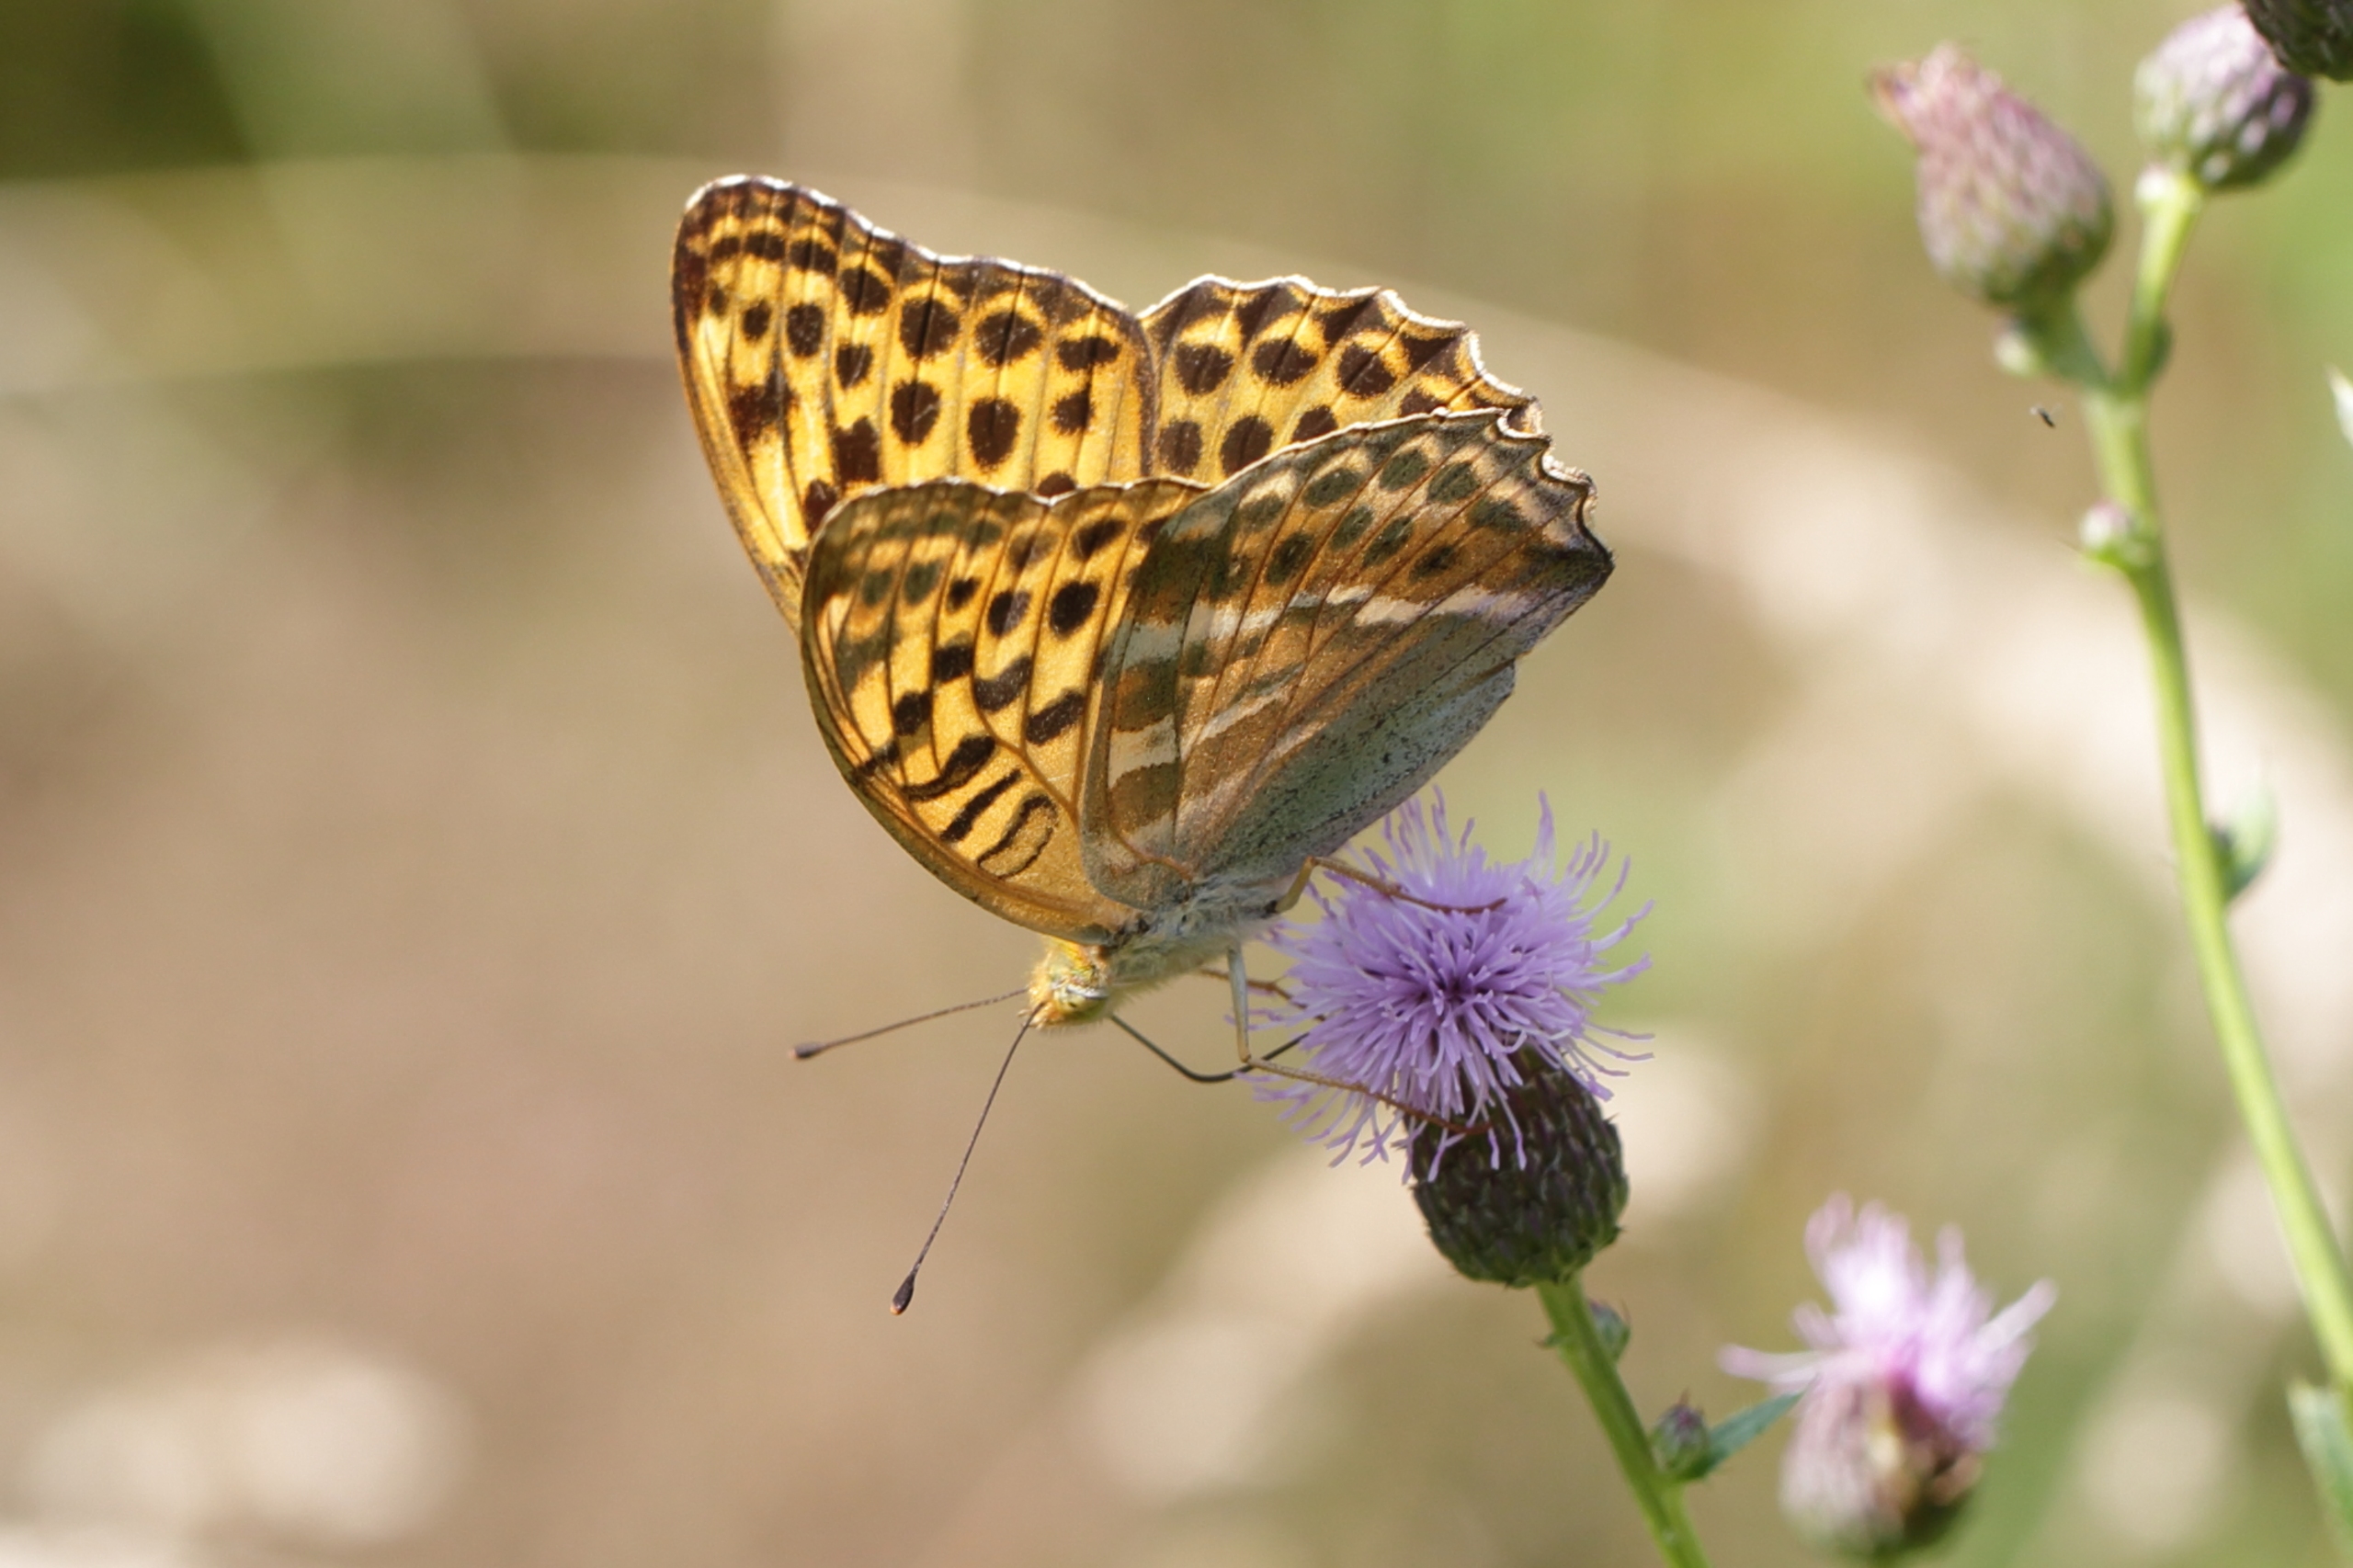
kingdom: Animalia
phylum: Arthropoda
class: Insecta
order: Lepidoptera
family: Nymphalidae
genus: Argynnis
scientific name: Argynnis paphia
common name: Kejserkåbe
